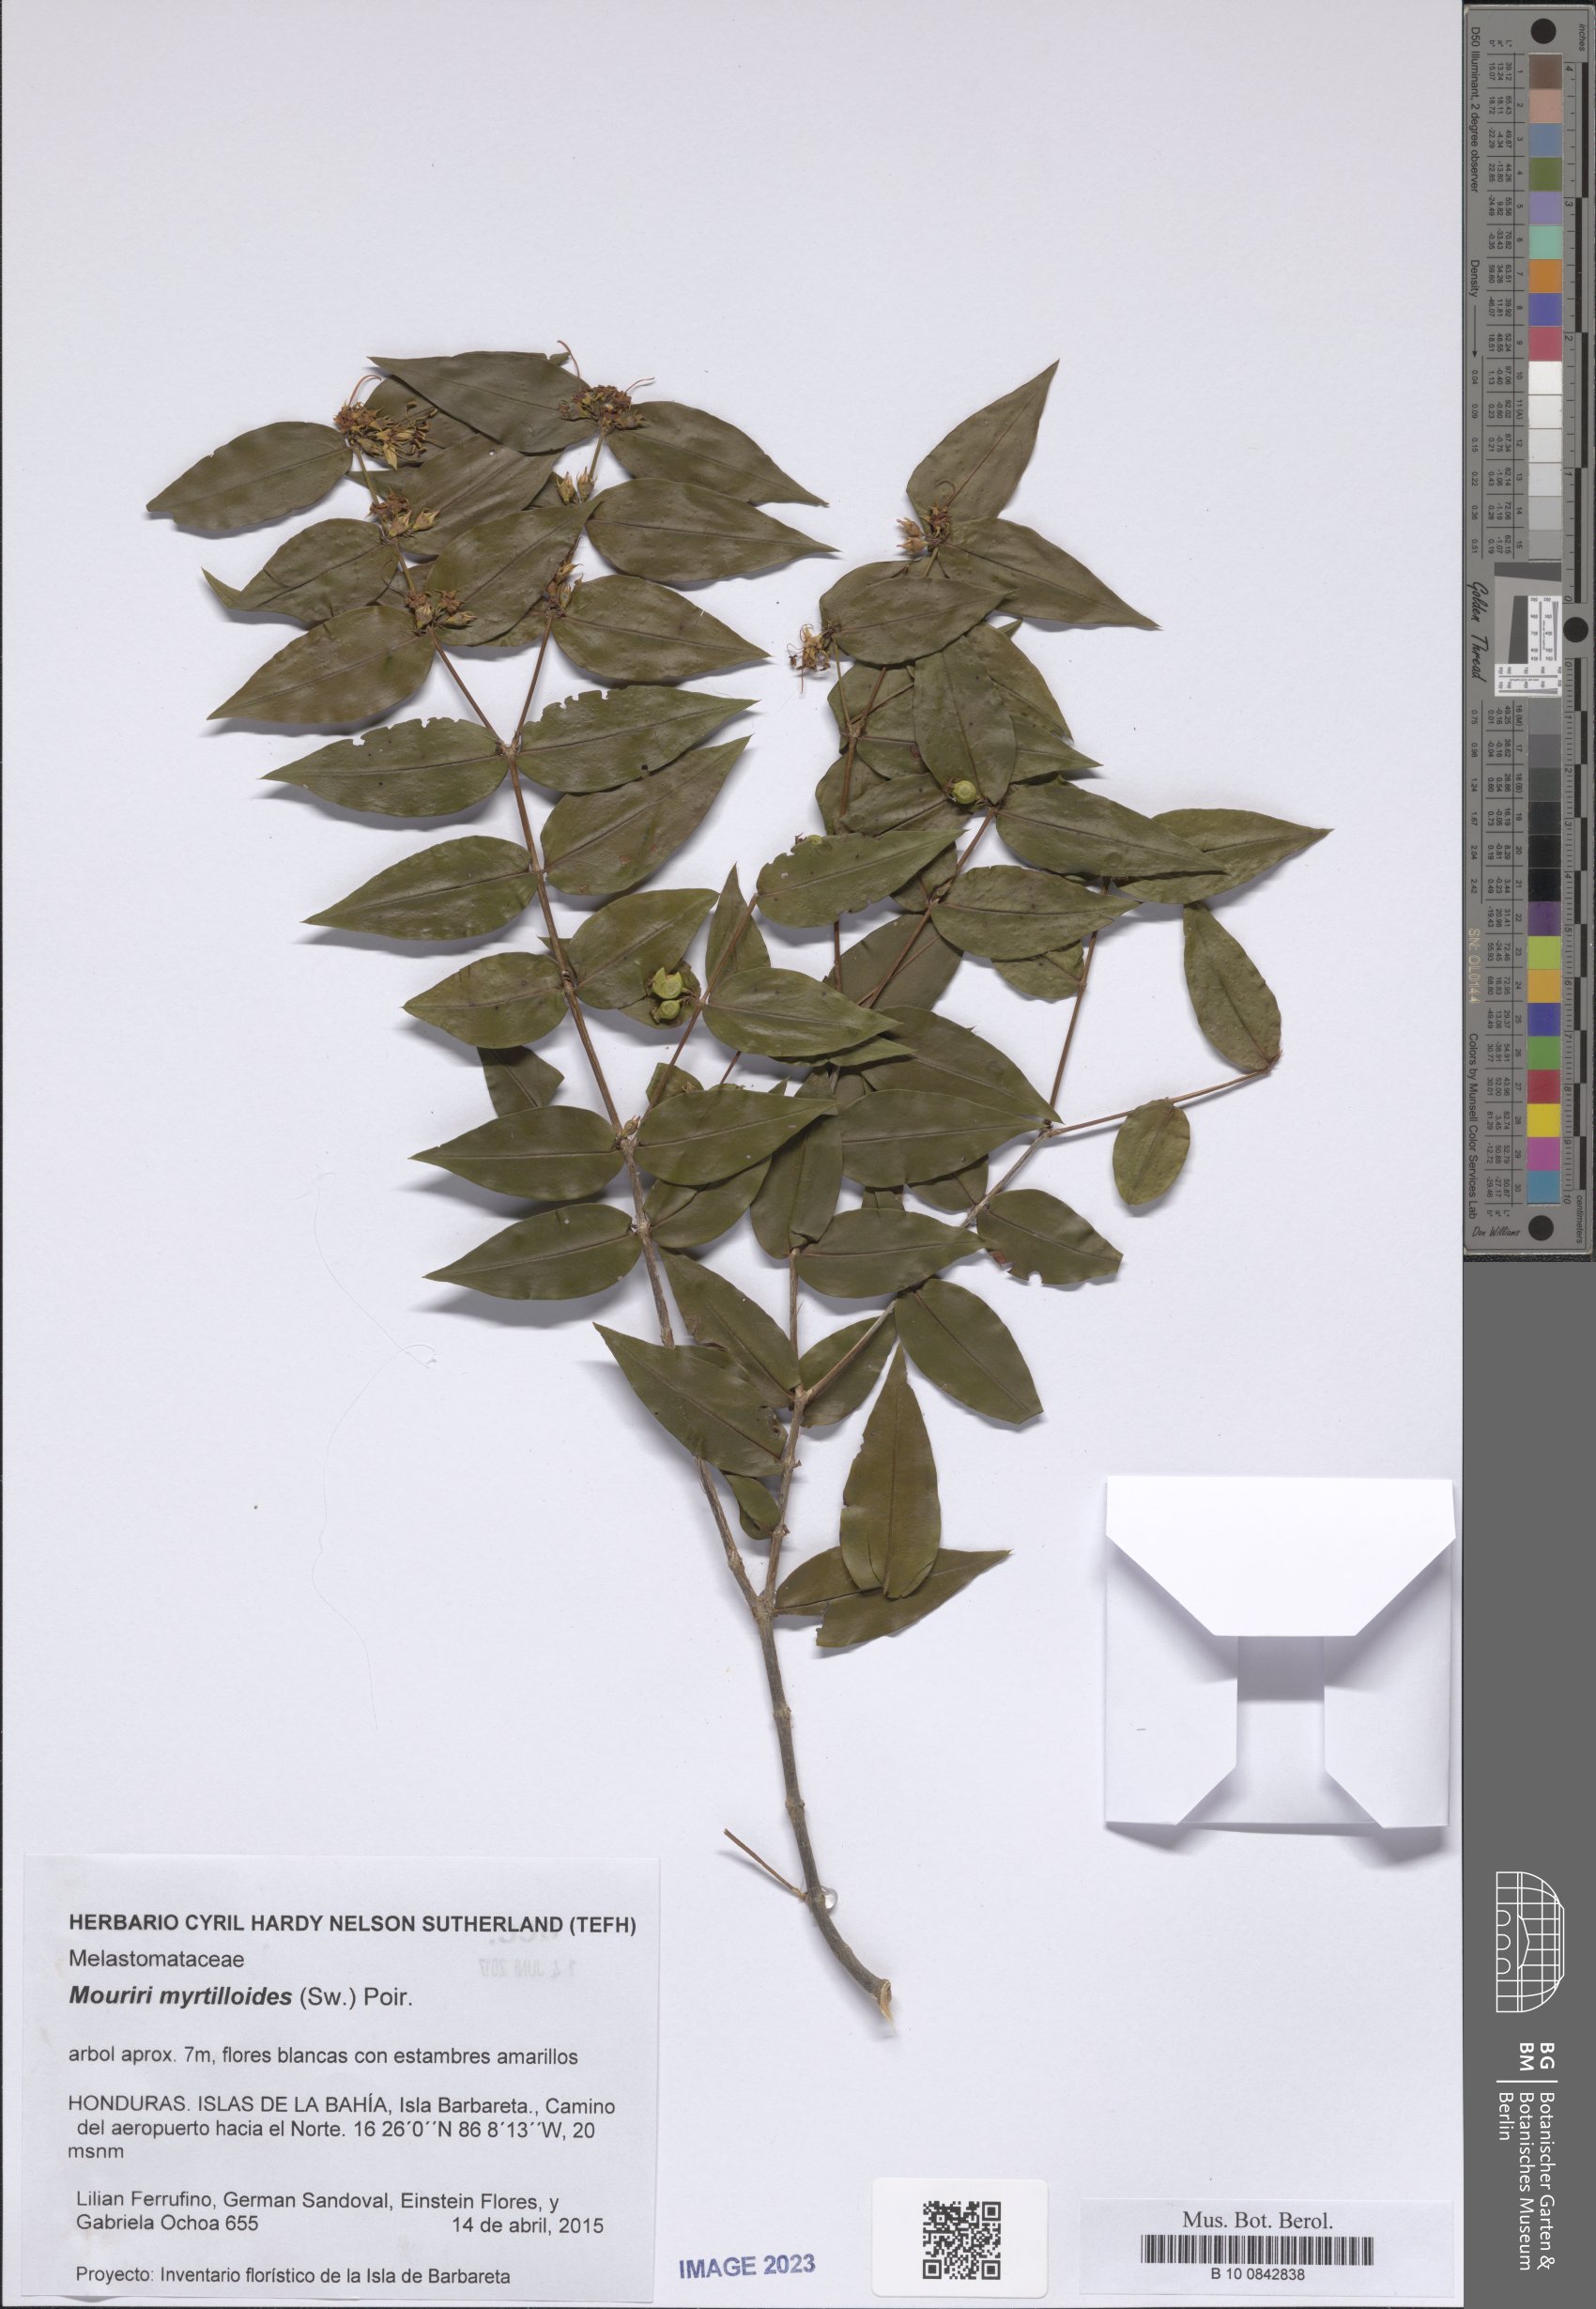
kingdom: Plantae
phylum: Tracheophyta
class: Magnoliopsida
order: Myrtales
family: Melastomataceae
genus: Mouriri
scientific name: Mouriri myrtilloides
